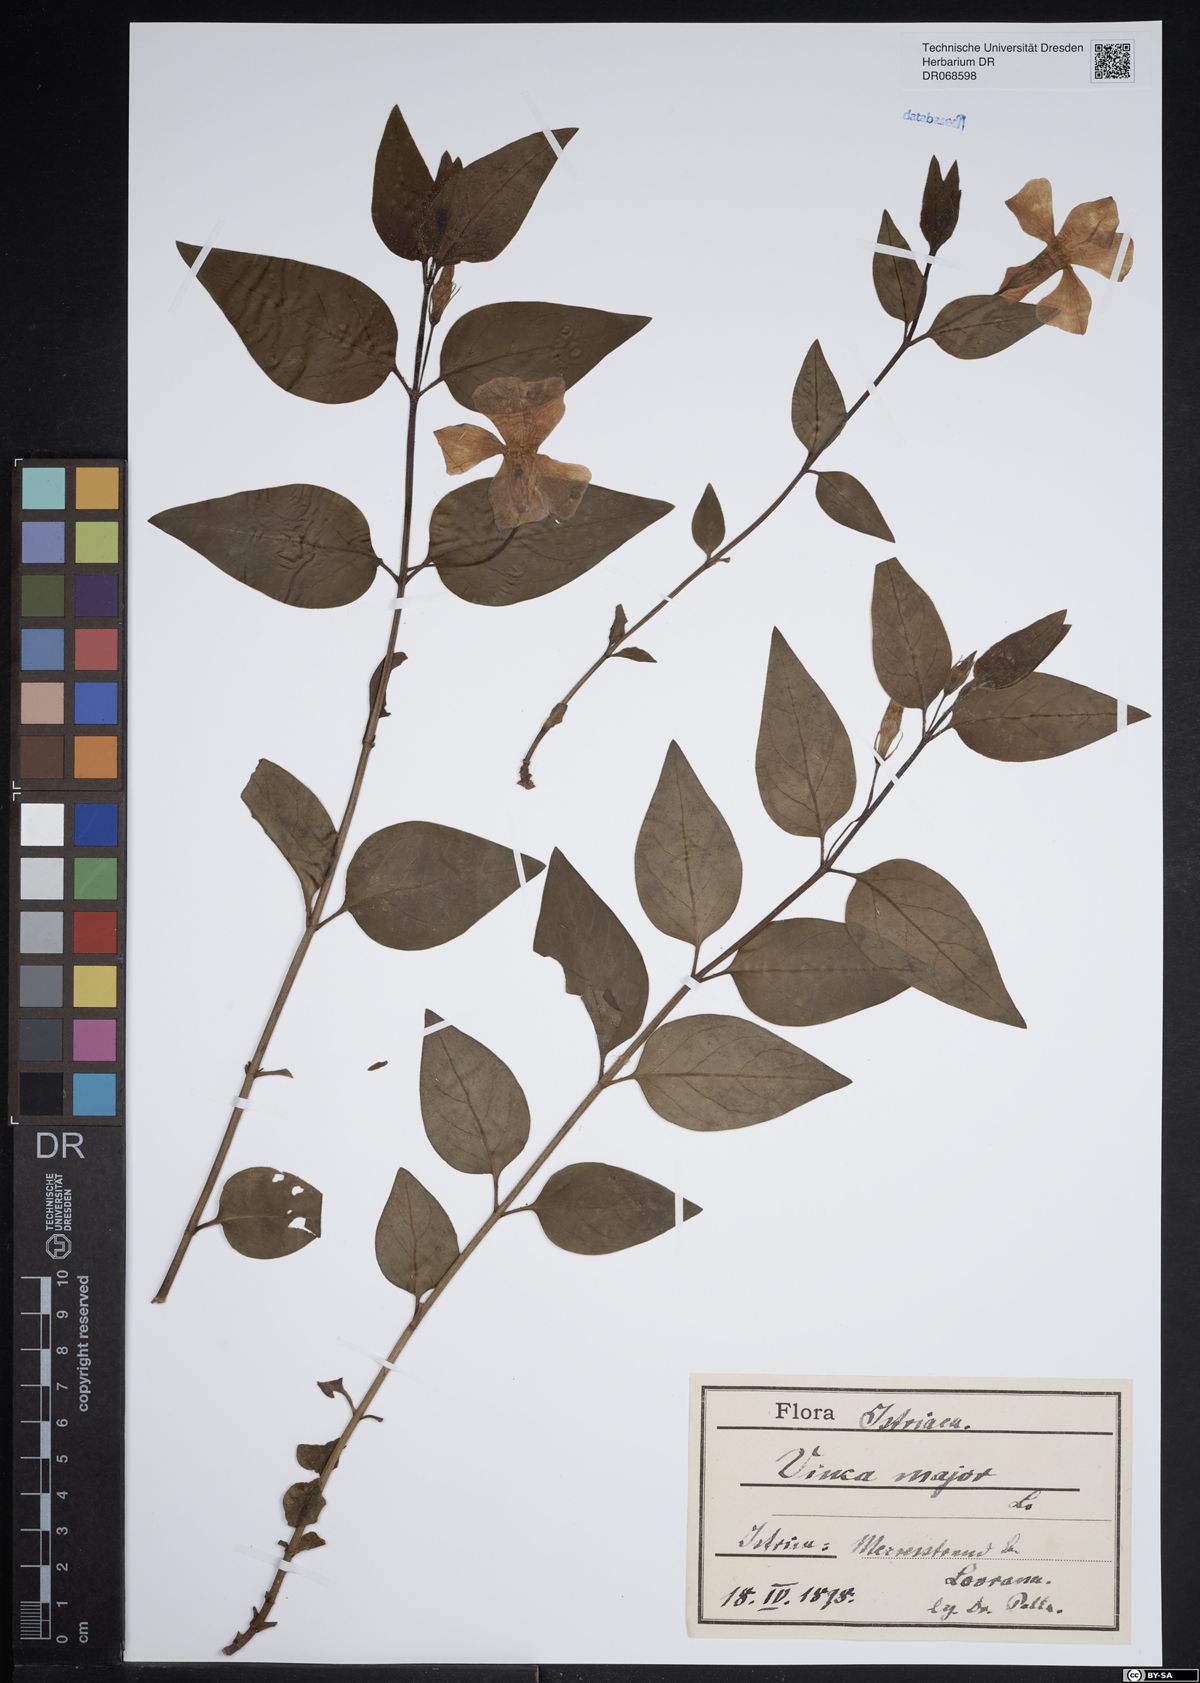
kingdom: Plantae
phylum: Tracheophyta
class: Magnoliopsida
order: Gentianales
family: Apocynaceae
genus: Vinca
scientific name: Vinca major
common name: Greater periwinkle
